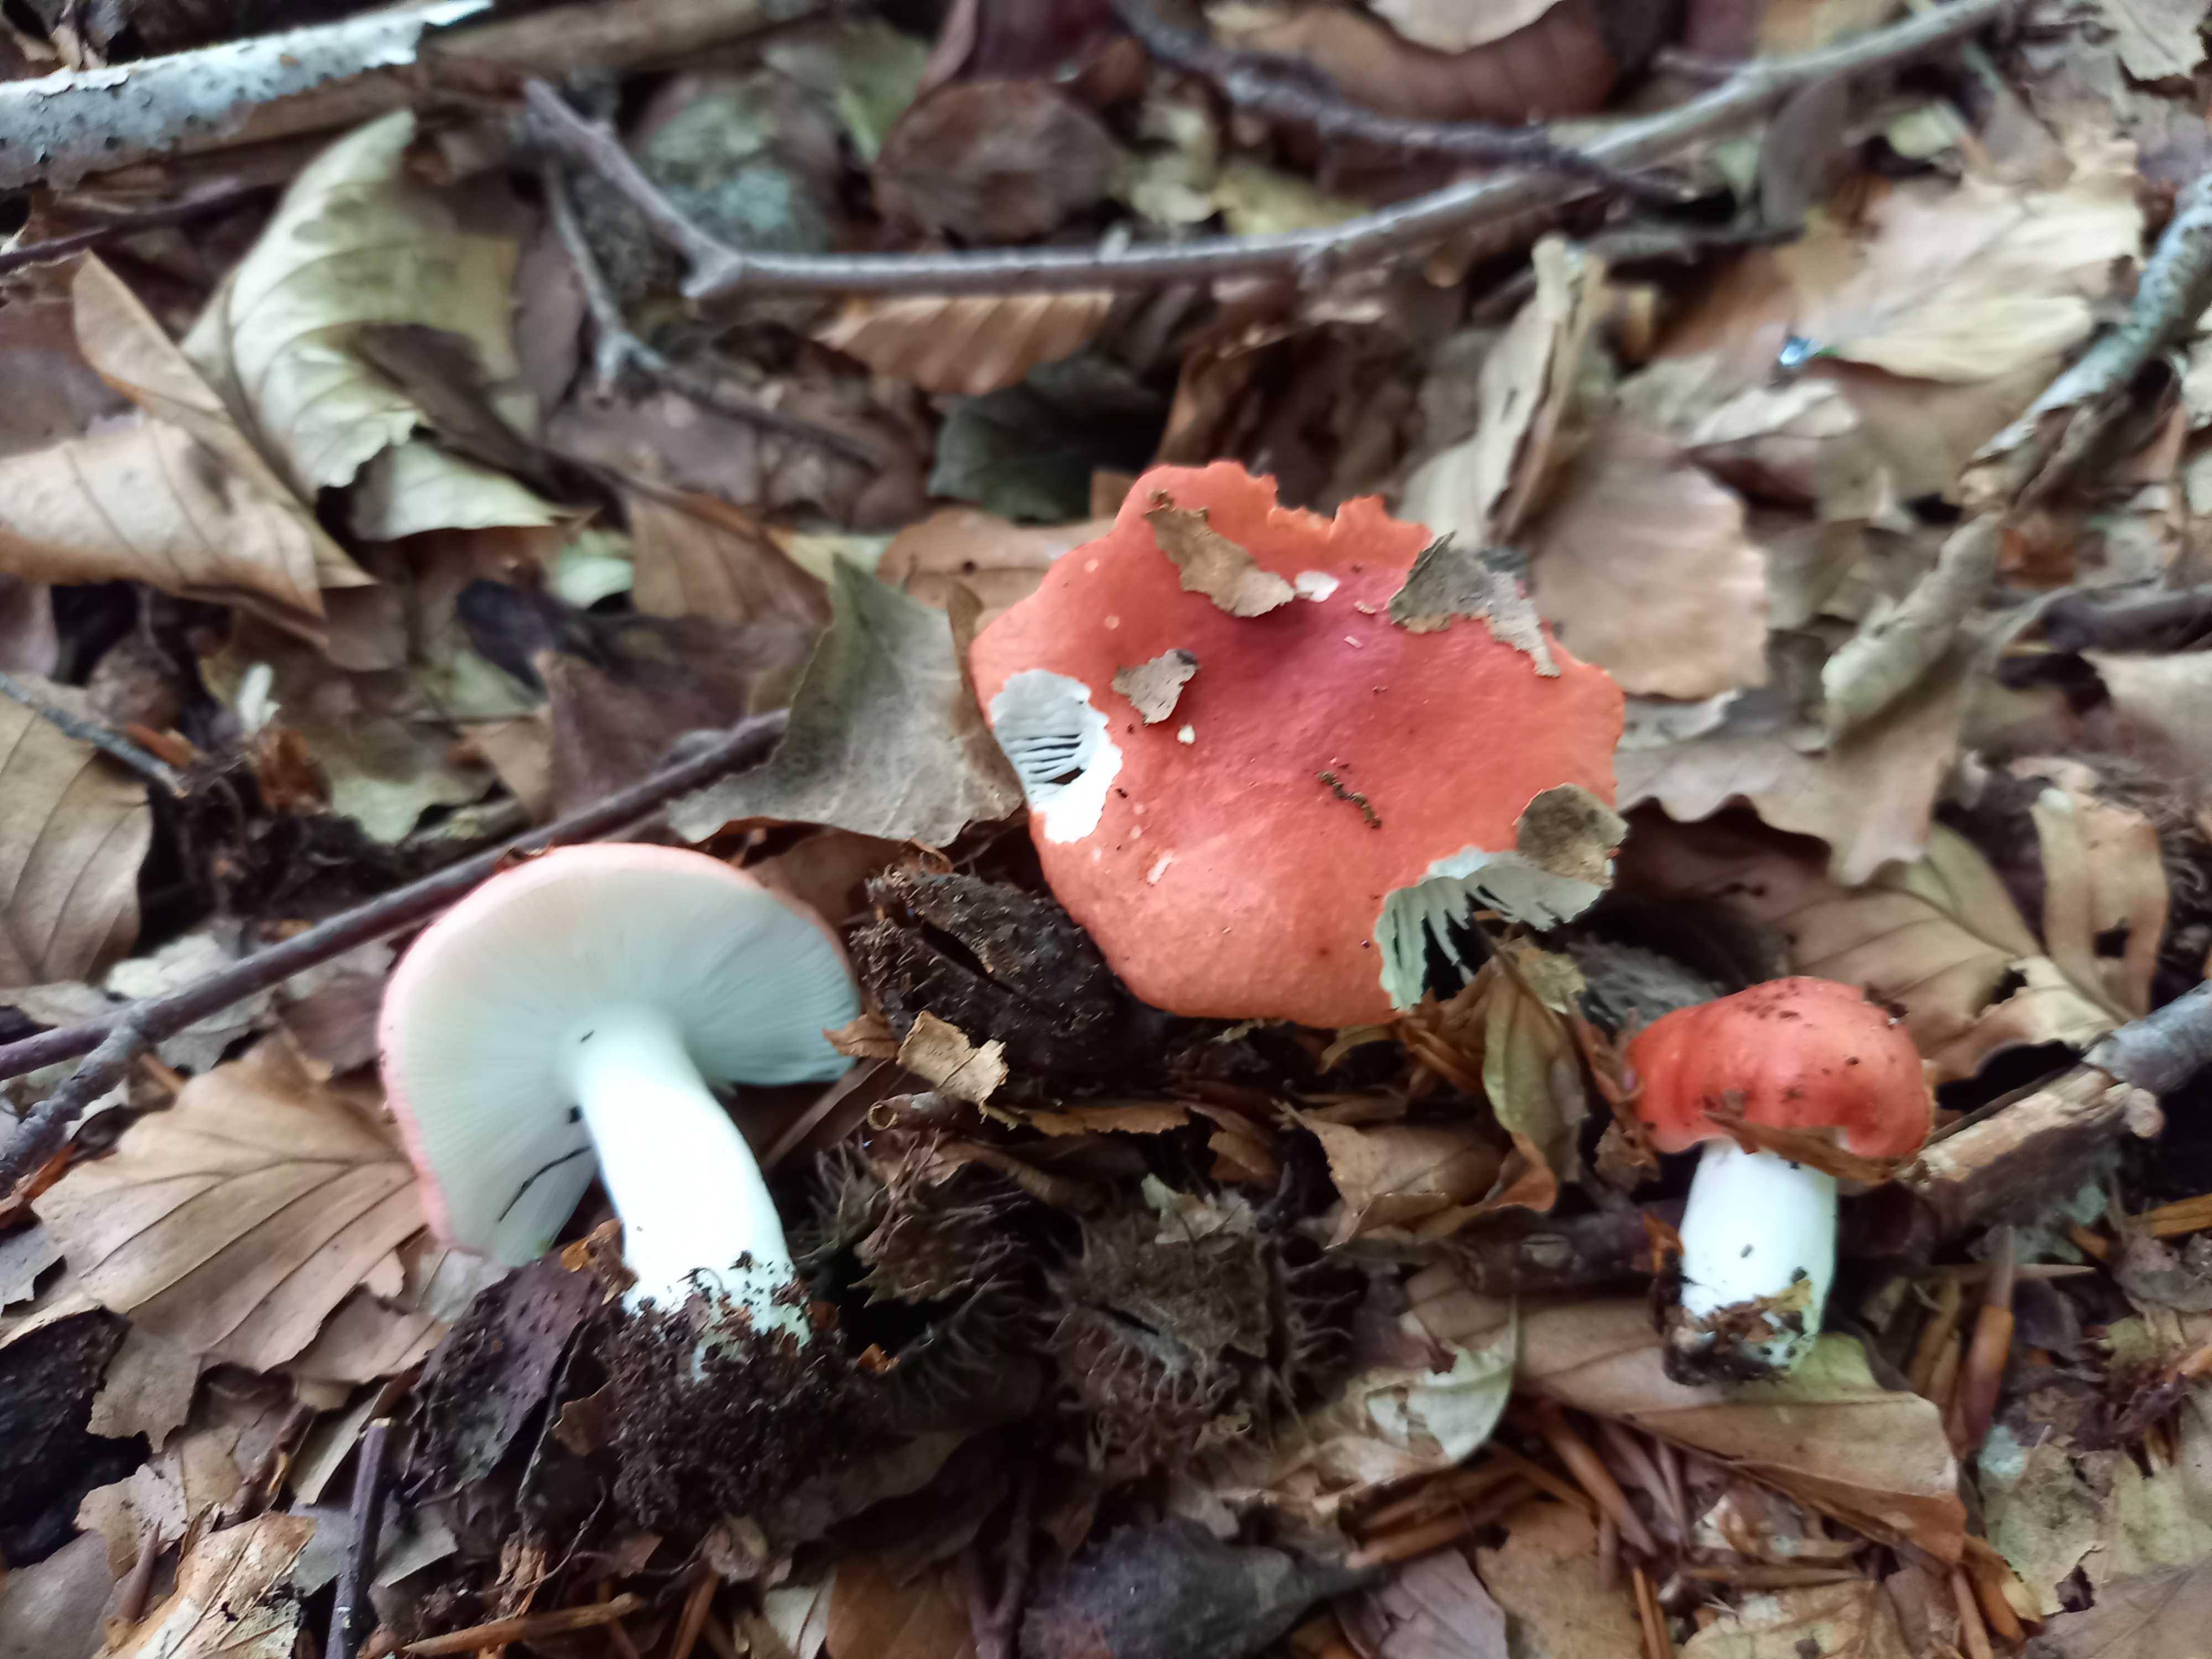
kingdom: Fungi
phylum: Basidiomycota
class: Agaricomycetes
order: Russulales
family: Russulaceae
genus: Russula
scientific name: Russula nobilis
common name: lille gift-skørhat
